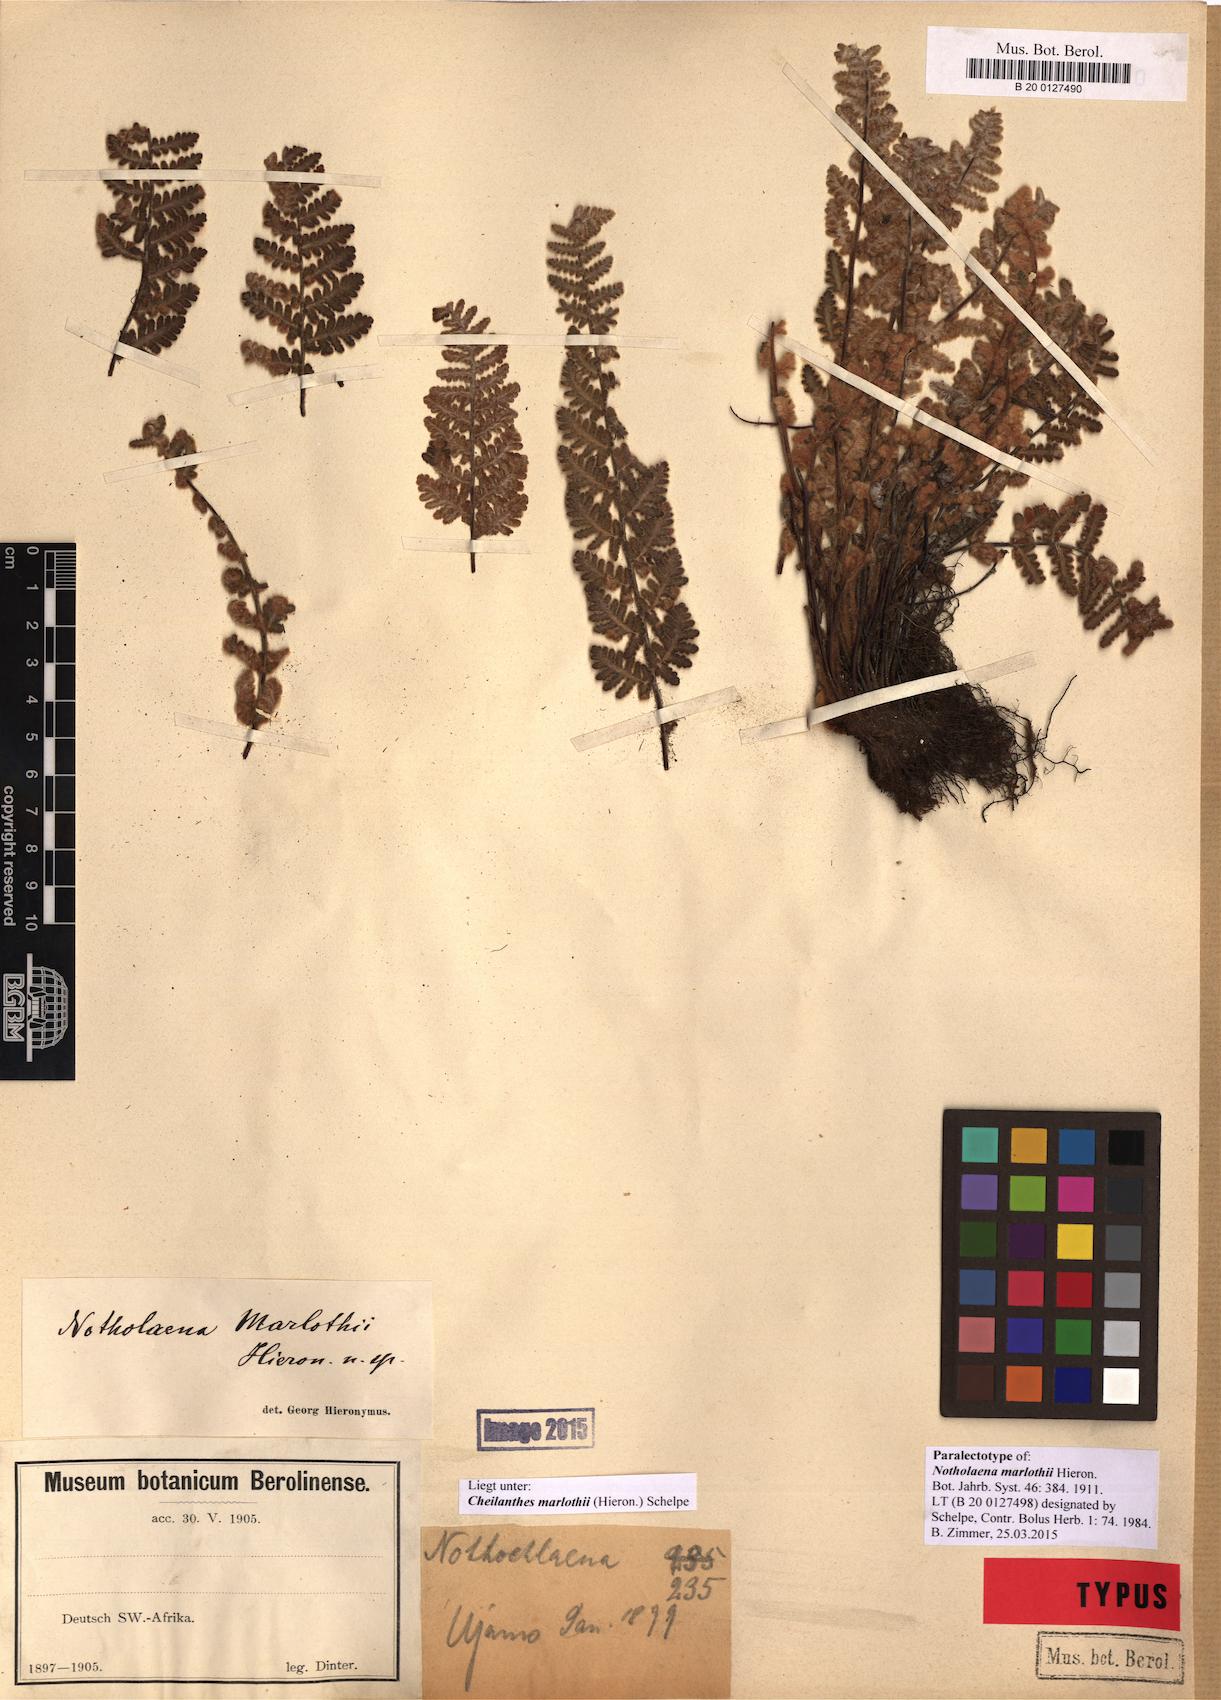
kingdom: Plantae
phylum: Tracheophyta
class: Polypodiopsida
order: Polypodiales
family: Pteridaceae
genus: Cheilanthes
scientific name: Cheilanthes marlothii
